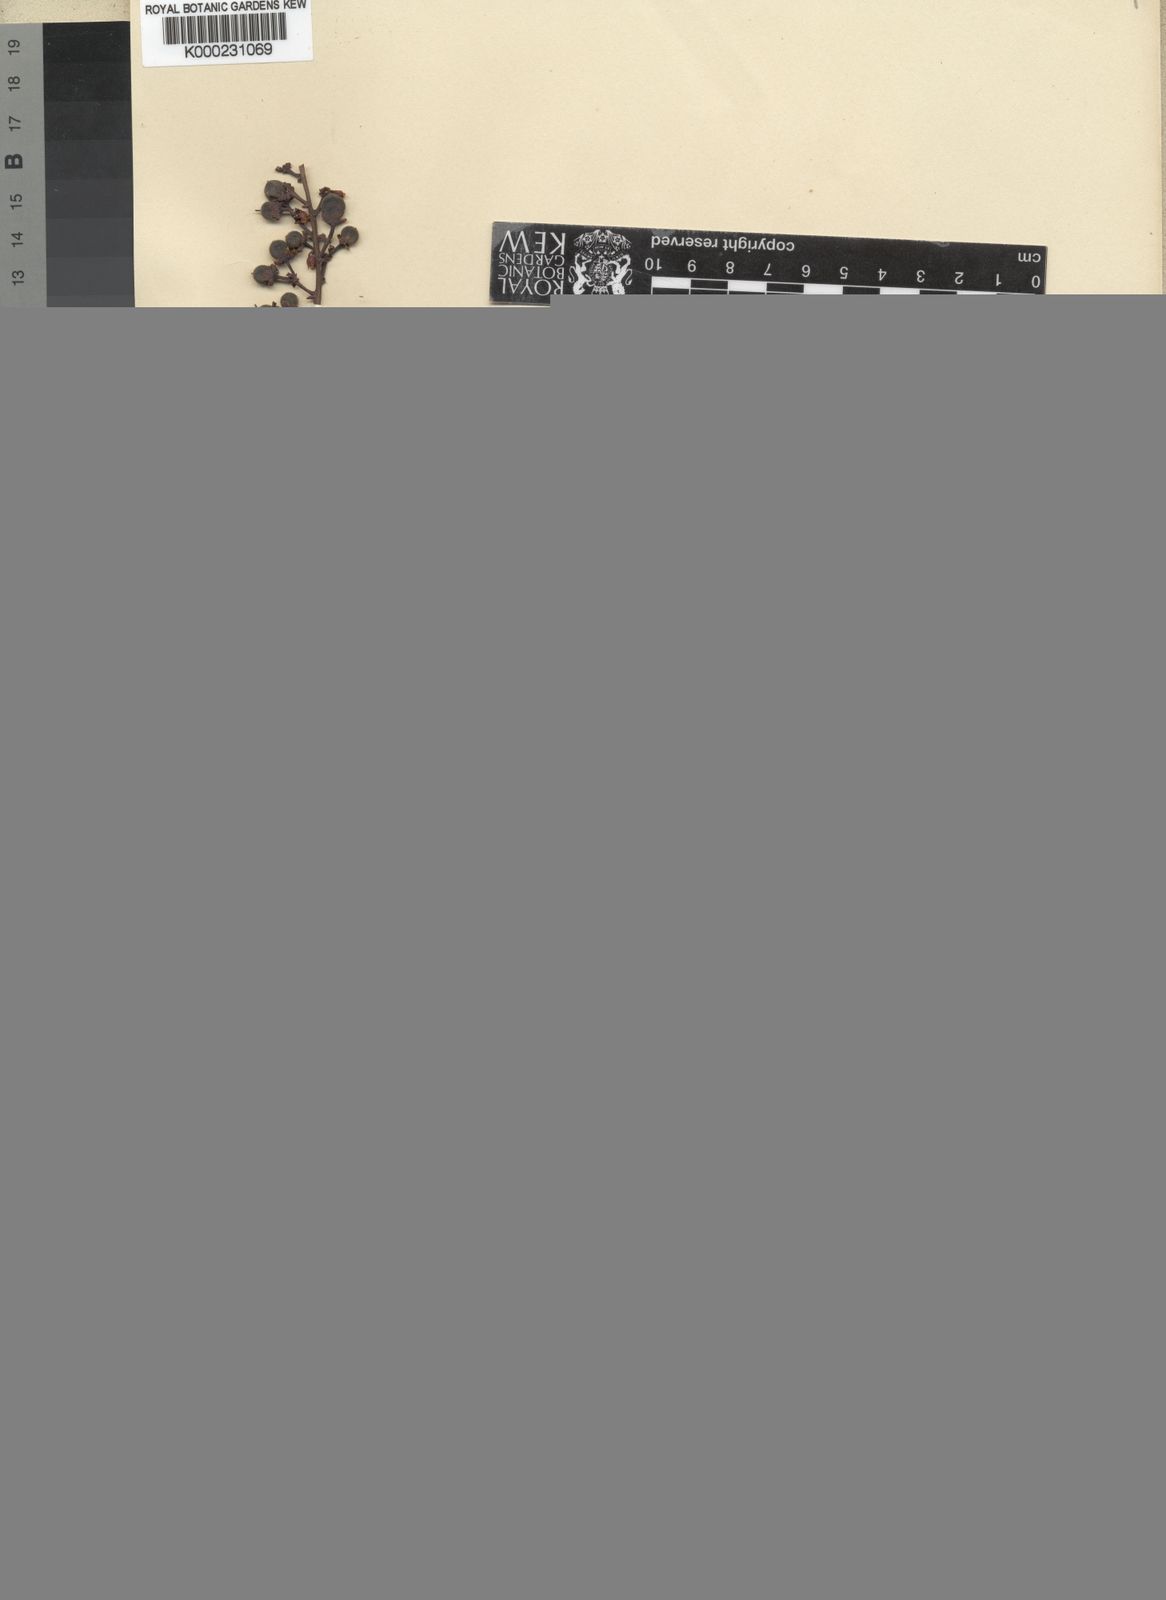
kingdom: Plantae
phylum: Tracheophyta
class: Magnoliopsida
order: Malpighiales
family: Violaceae
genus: Rinorea
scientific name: Rinorea welwitschii
